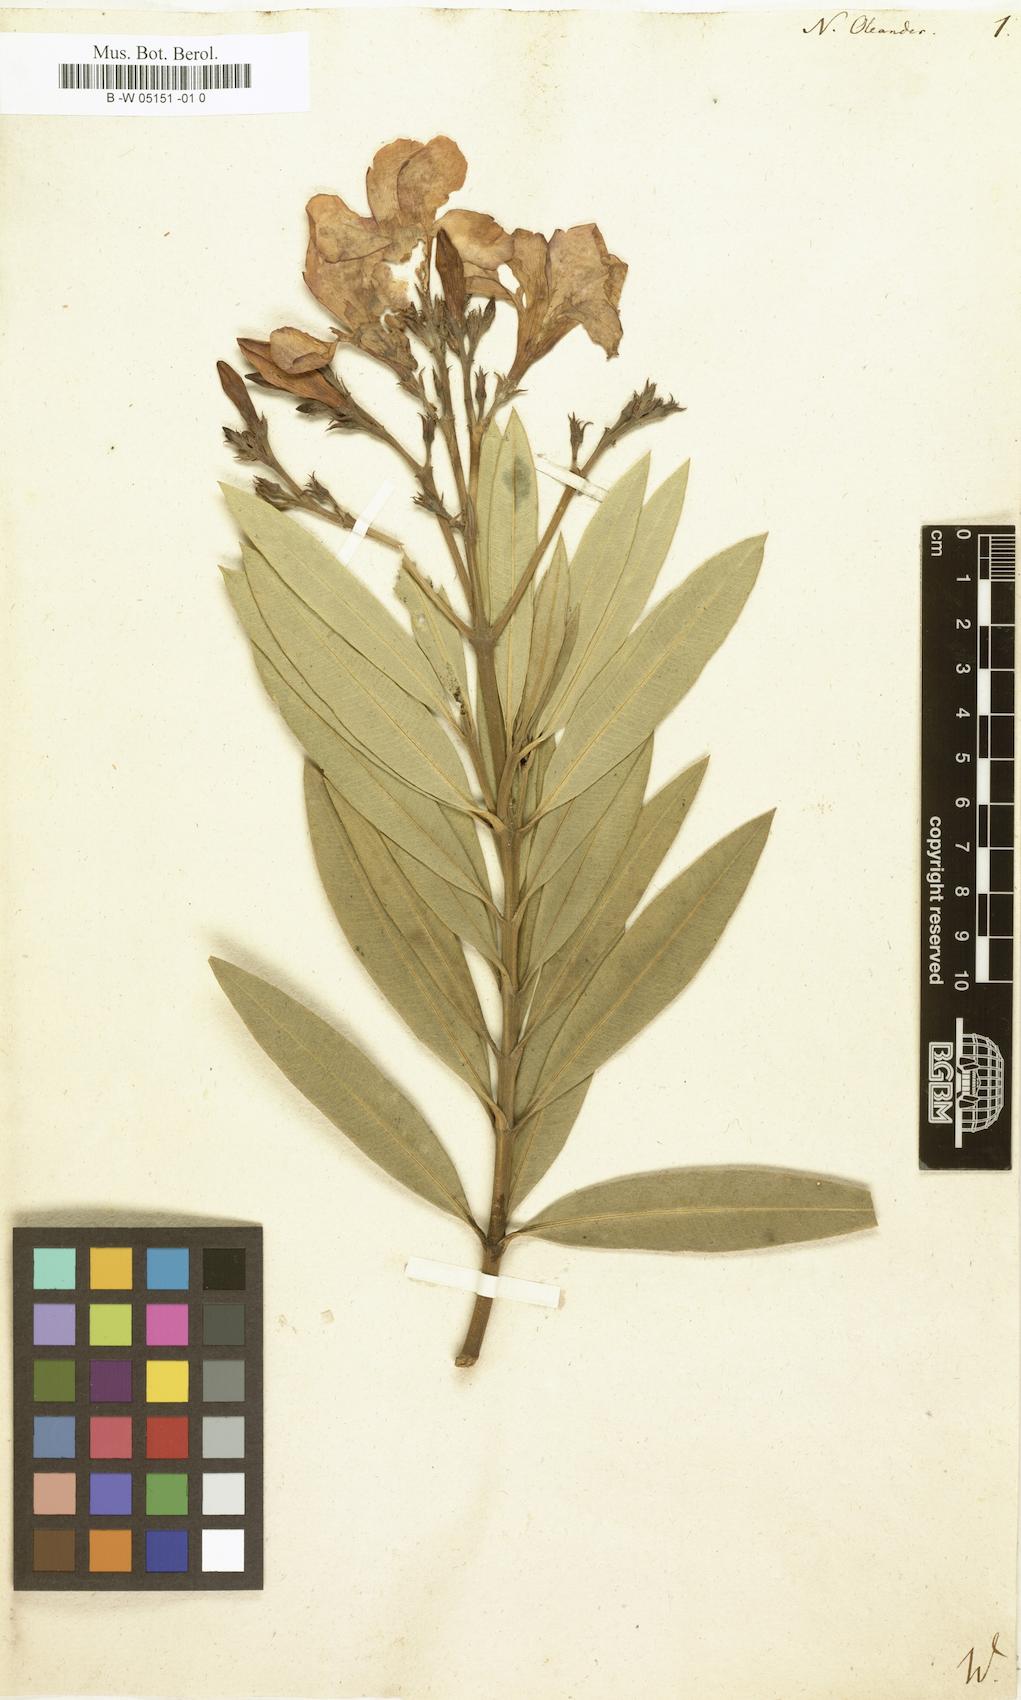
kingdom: Plantae
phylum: Tracheophyta
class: Magnoliopsida
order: Gentianales
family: Apocynaceae
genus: Nerium
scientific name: Nerium oleander
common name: Oleander
